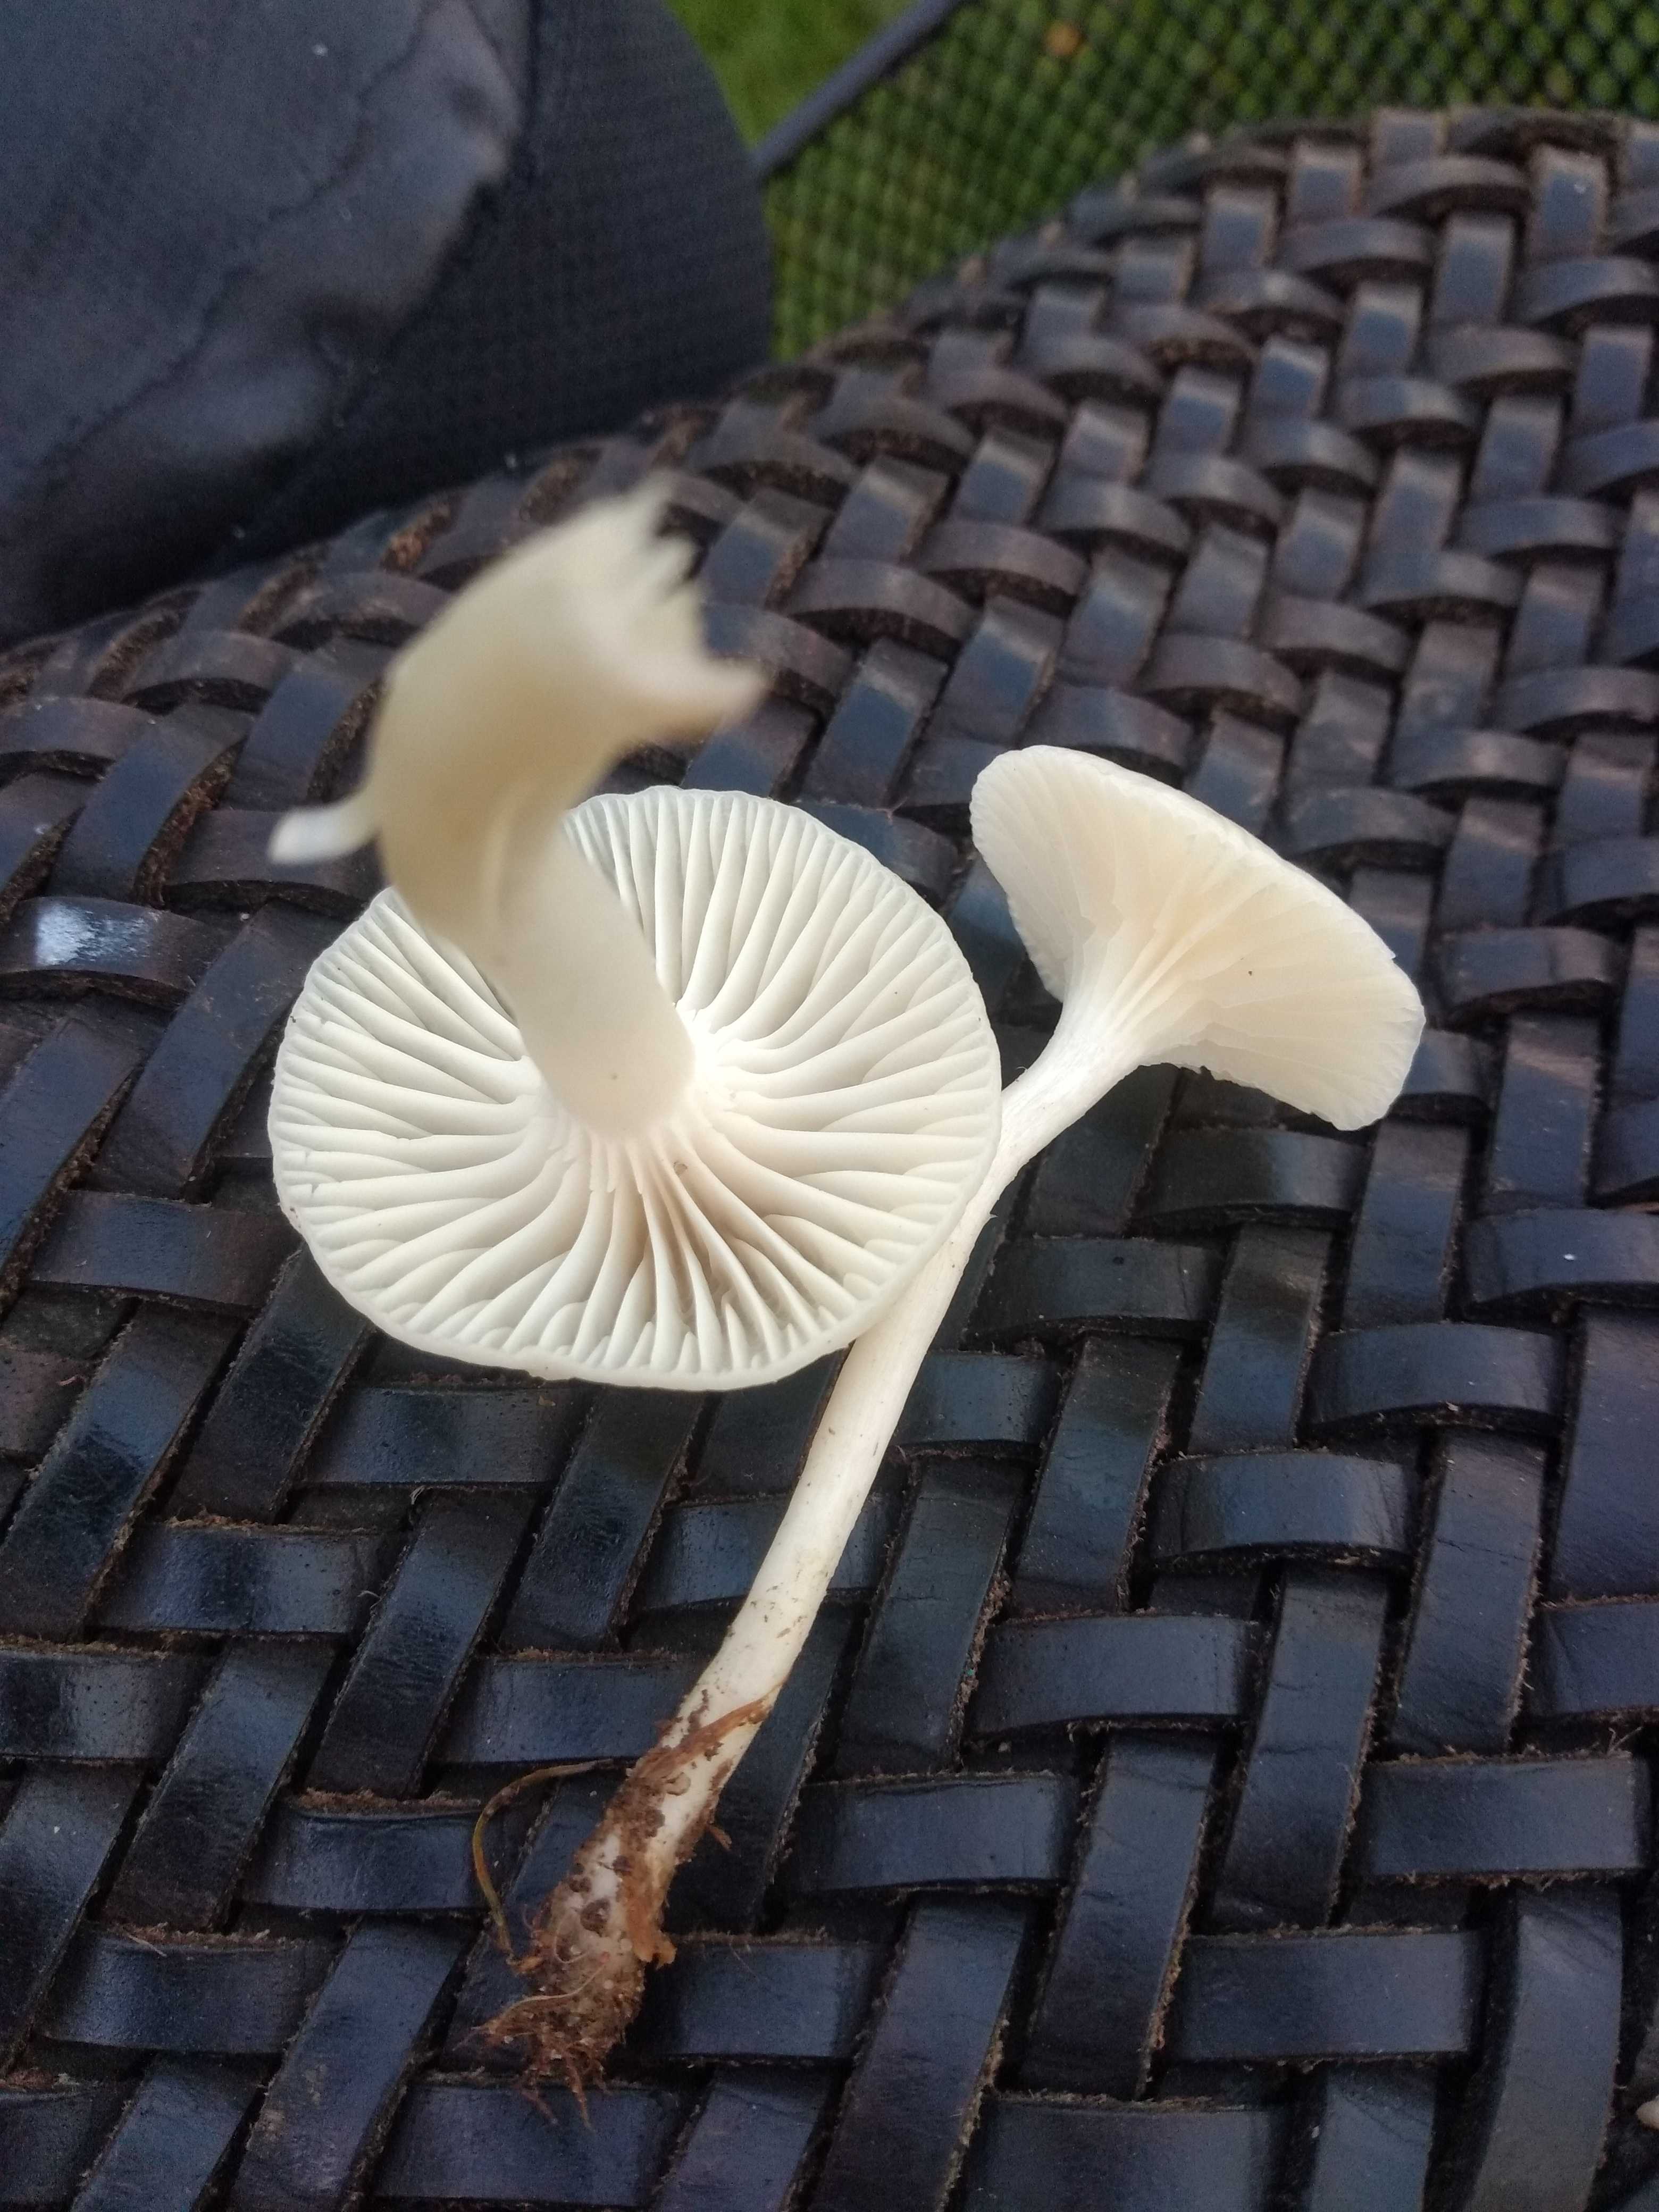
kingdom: Fungi
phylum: Basidiomycota
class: Agaricomycetes
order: Agaricales
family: Hygrophoraceae
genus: Cuphophyllus
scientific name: Cuphophyllus virgineus
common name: snehvid vokshat
